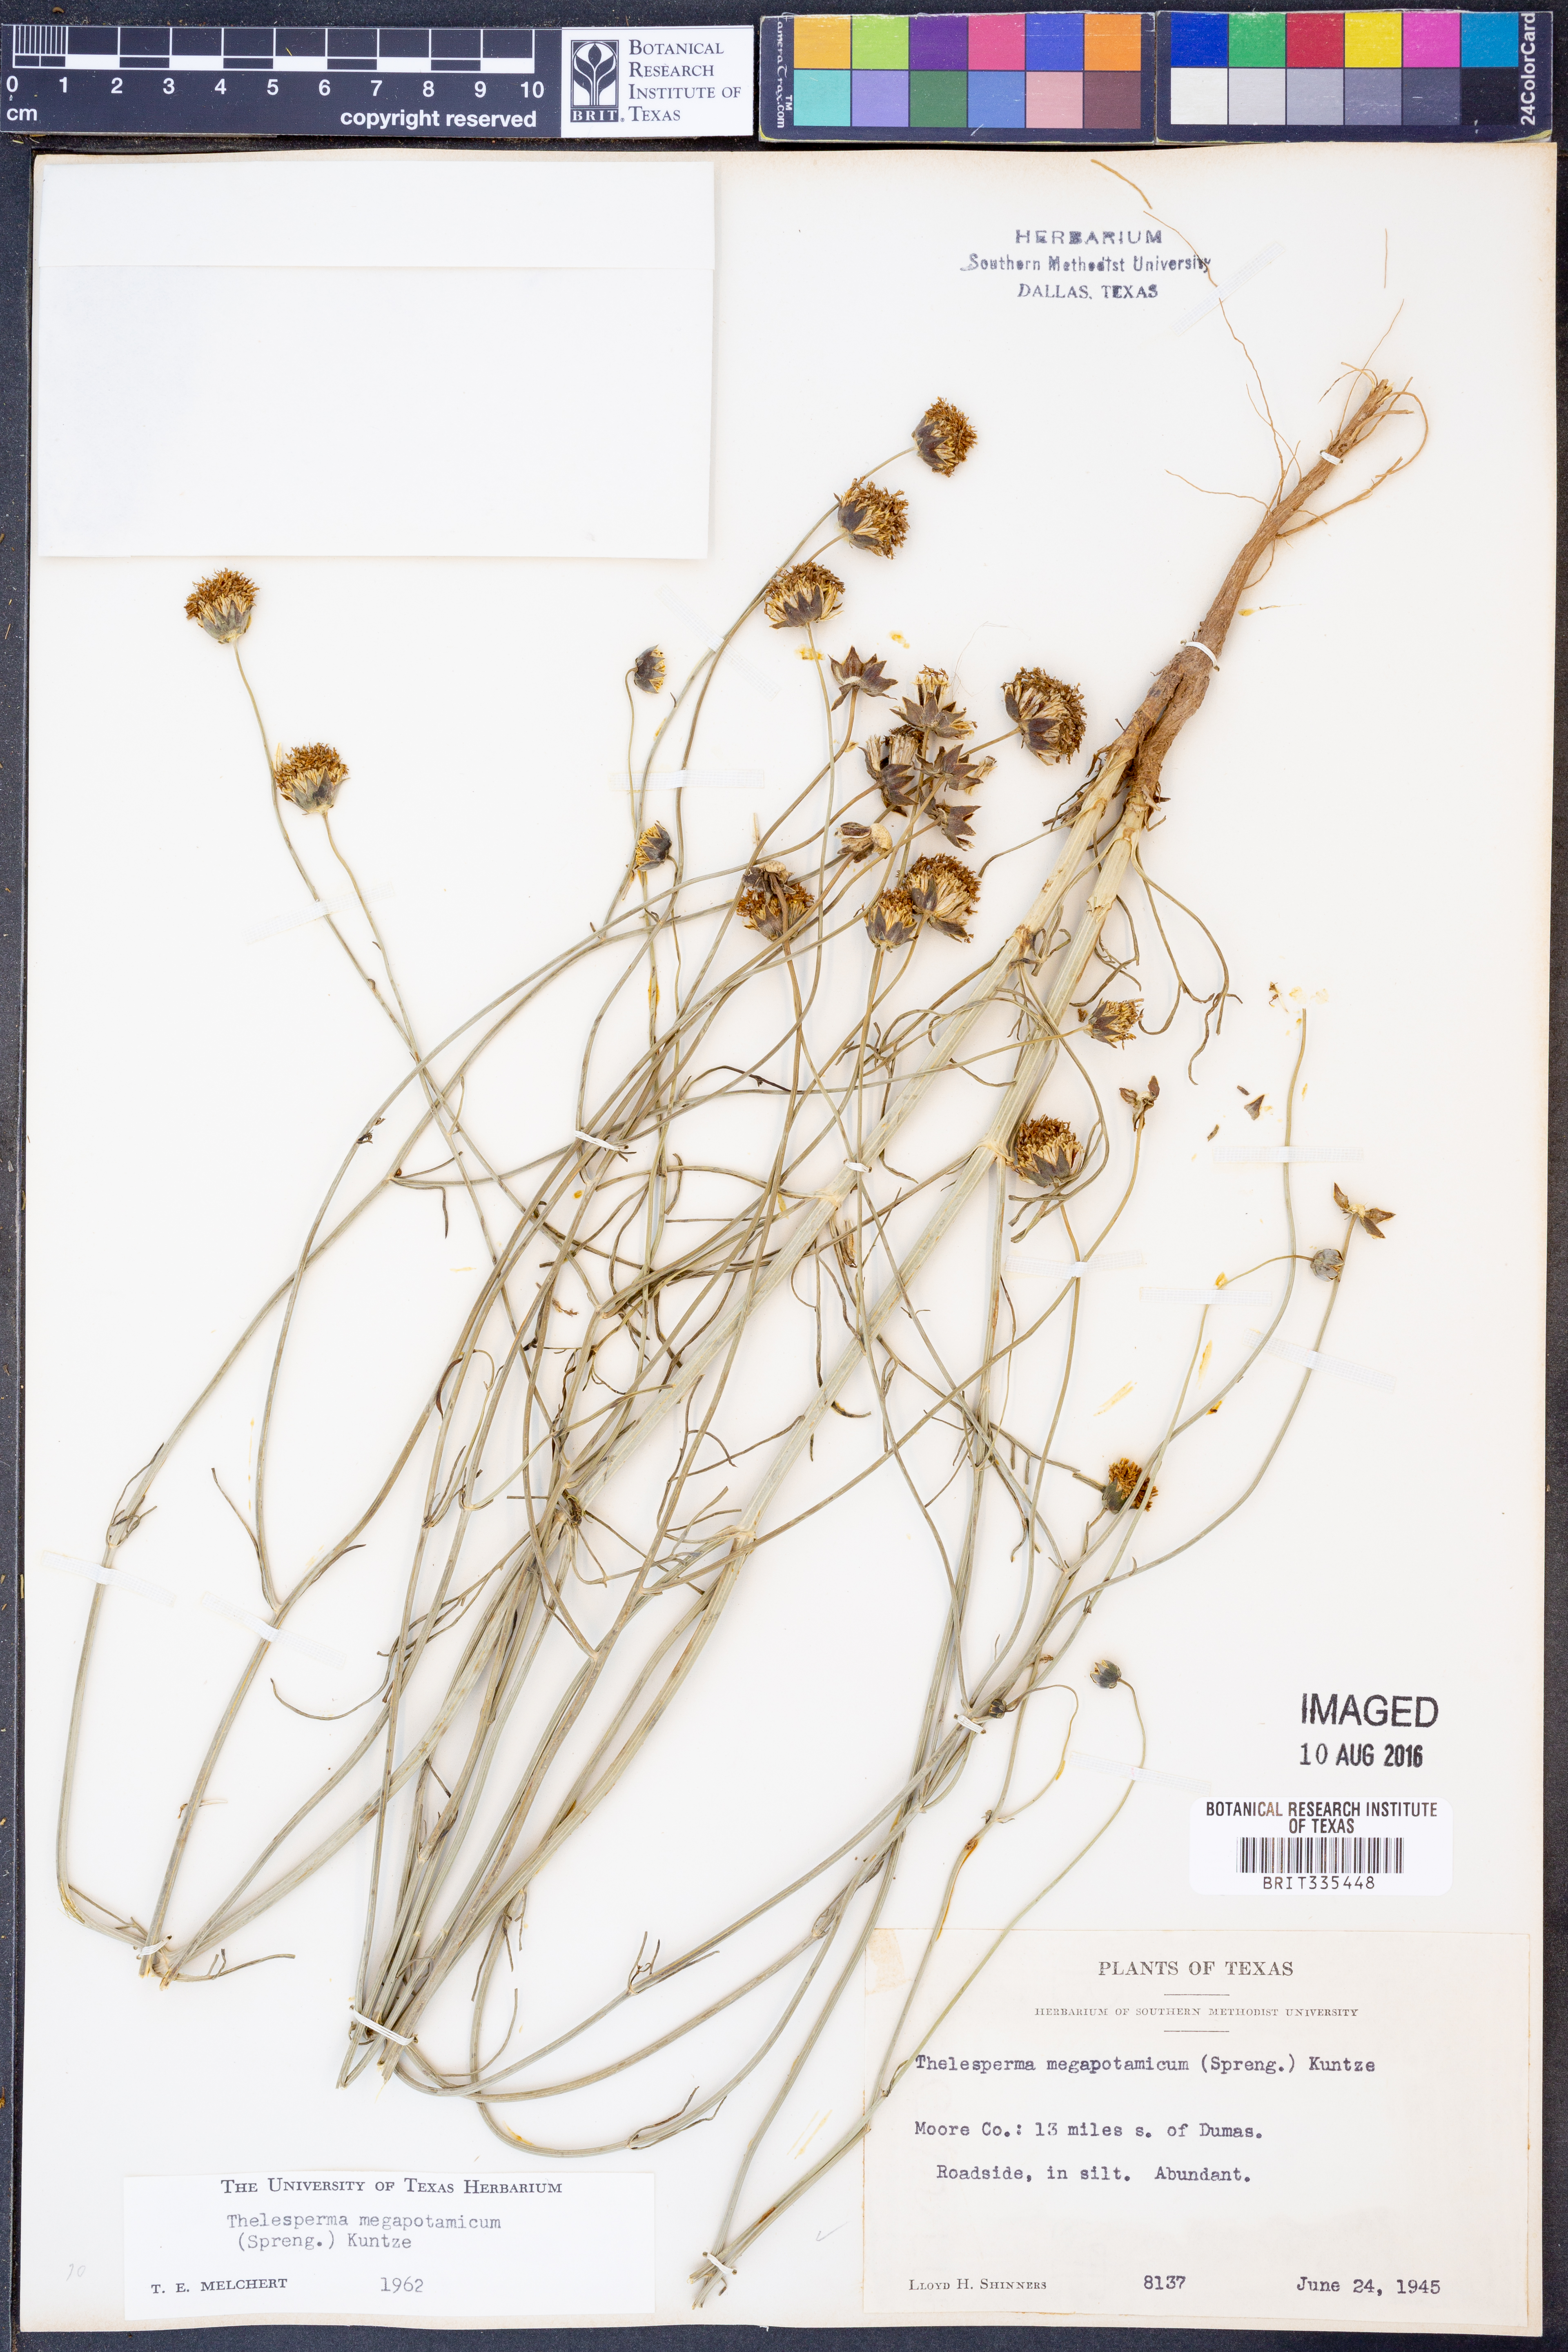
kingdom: Plantae
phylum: Tracheophyta
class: Magnoliopsida
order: Asterales
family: Asteraceae
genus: Thelesperma
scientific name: Thelesperma megapotamicum
